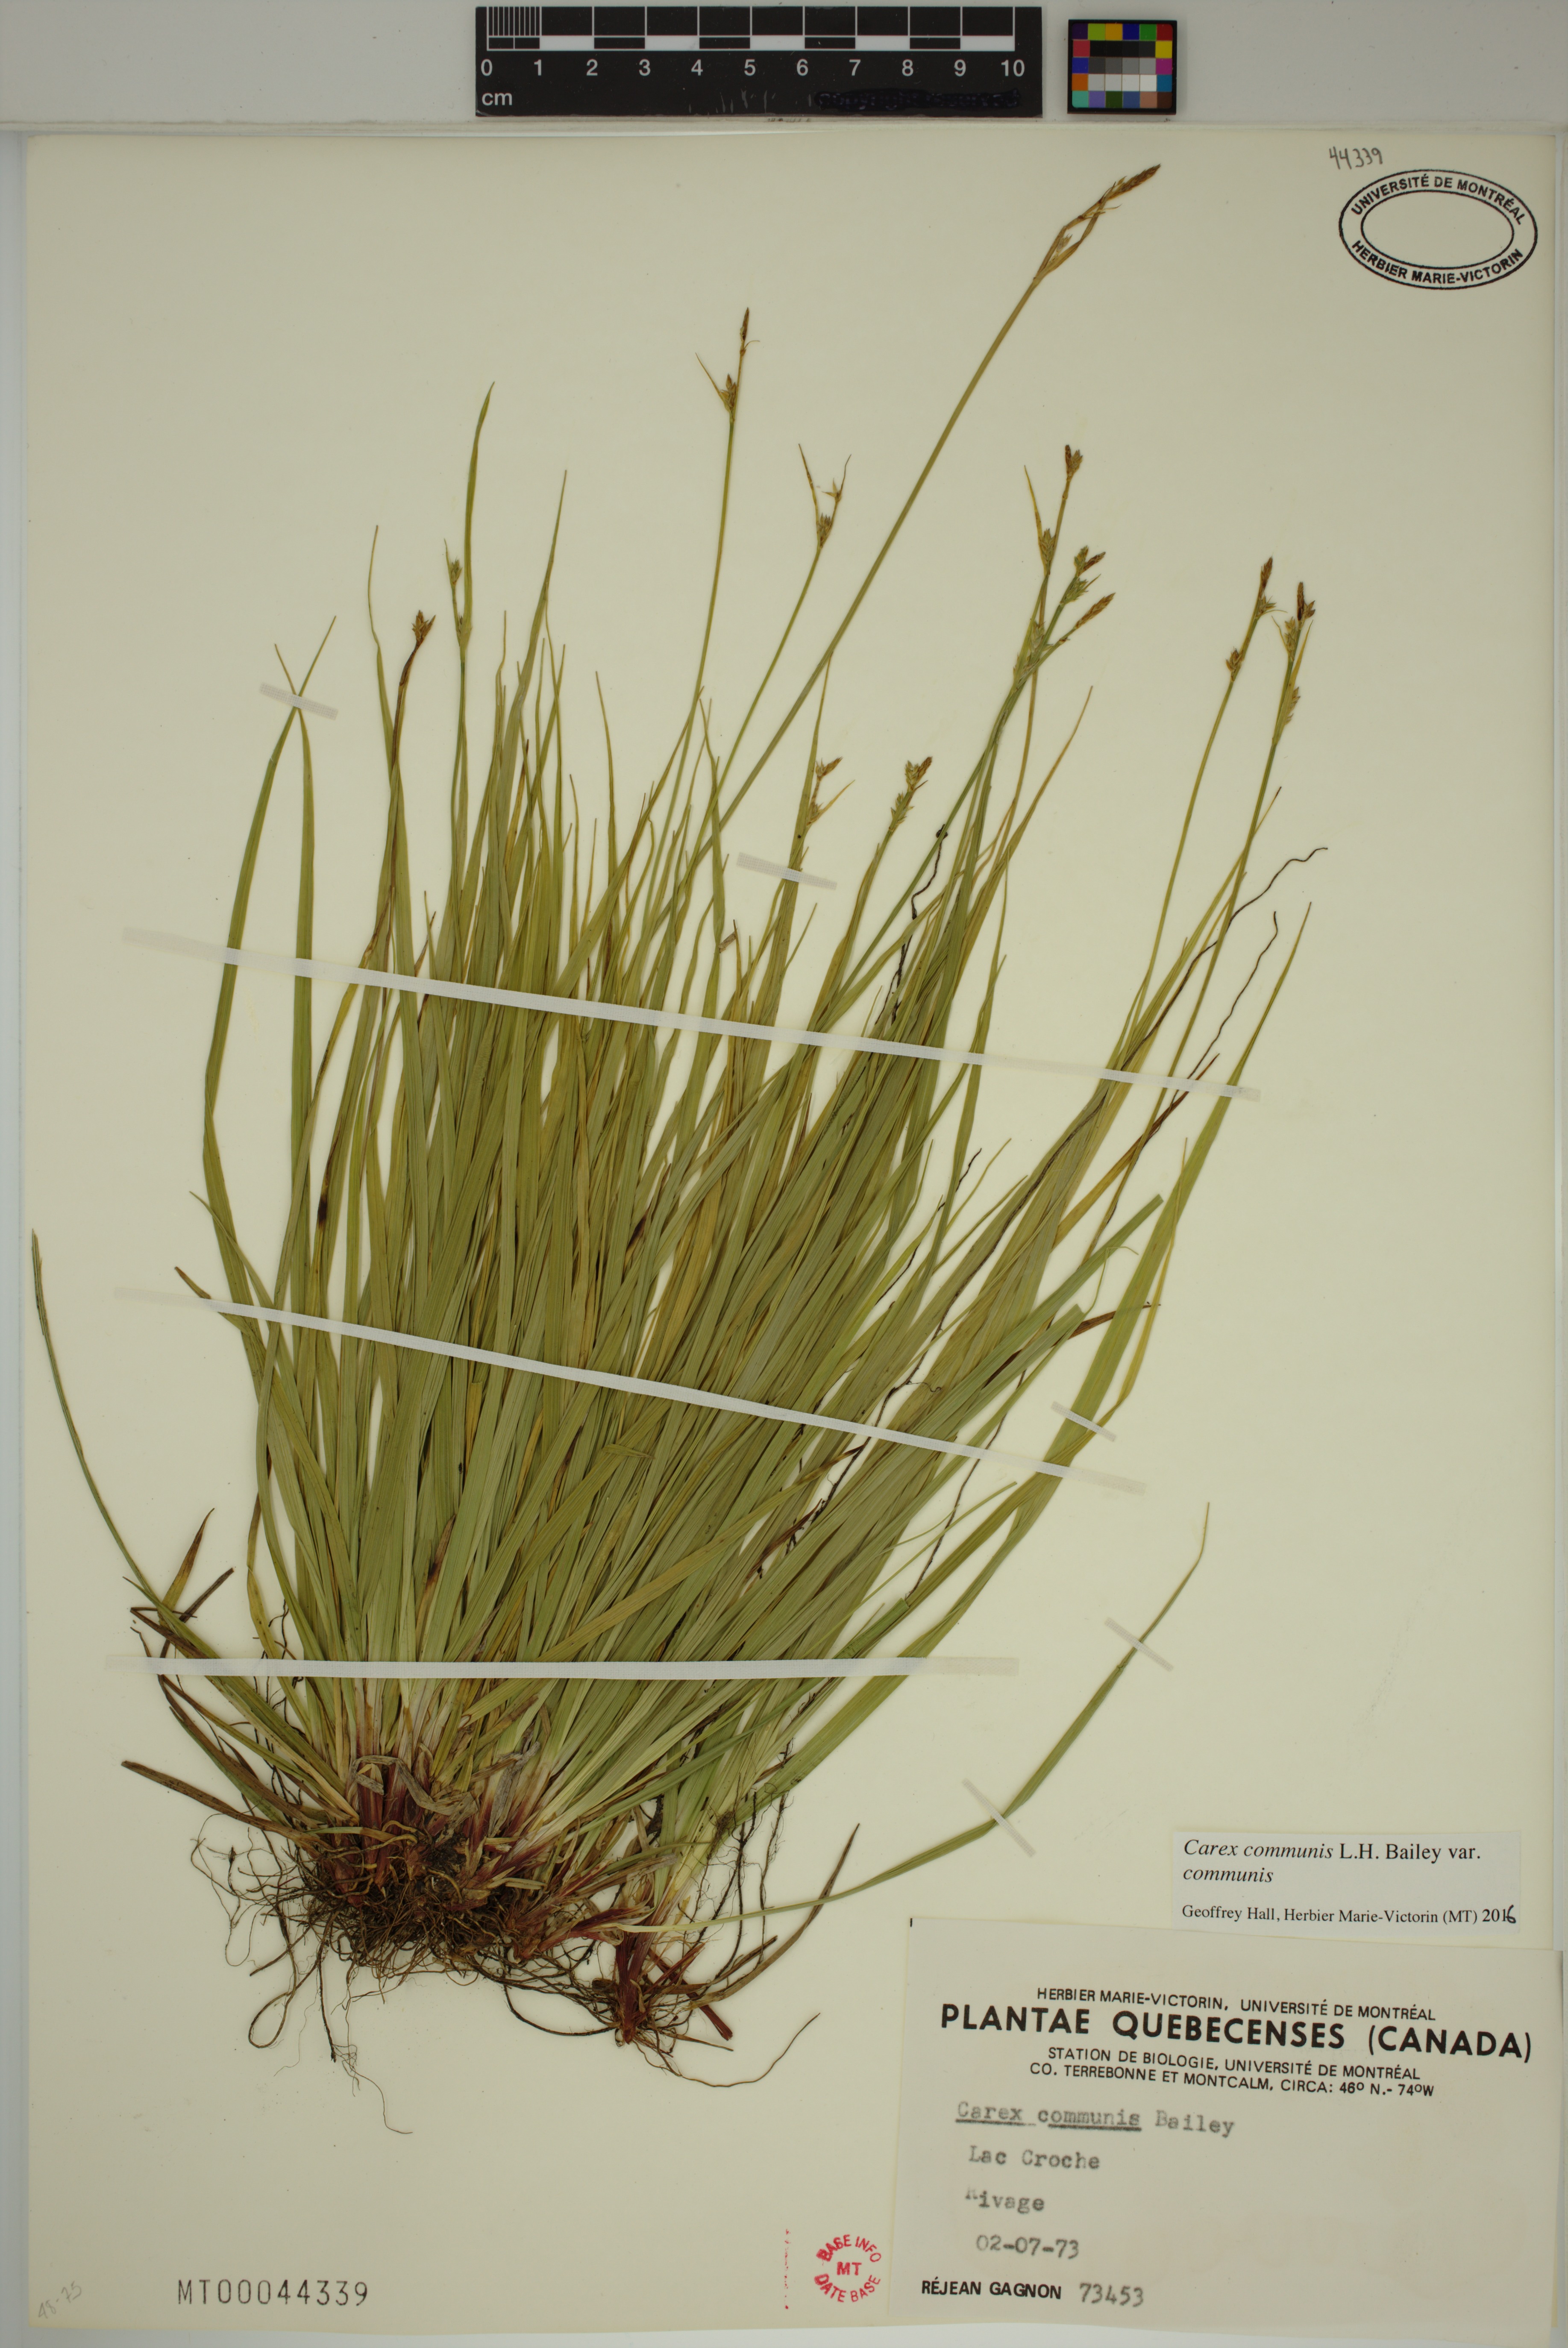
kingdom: Plantae
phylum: Tracheophyta
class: Liliopsida
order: Poales
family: Cyperaceae
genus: Carex
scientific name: Carex communis
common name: Colonial oak sedge
